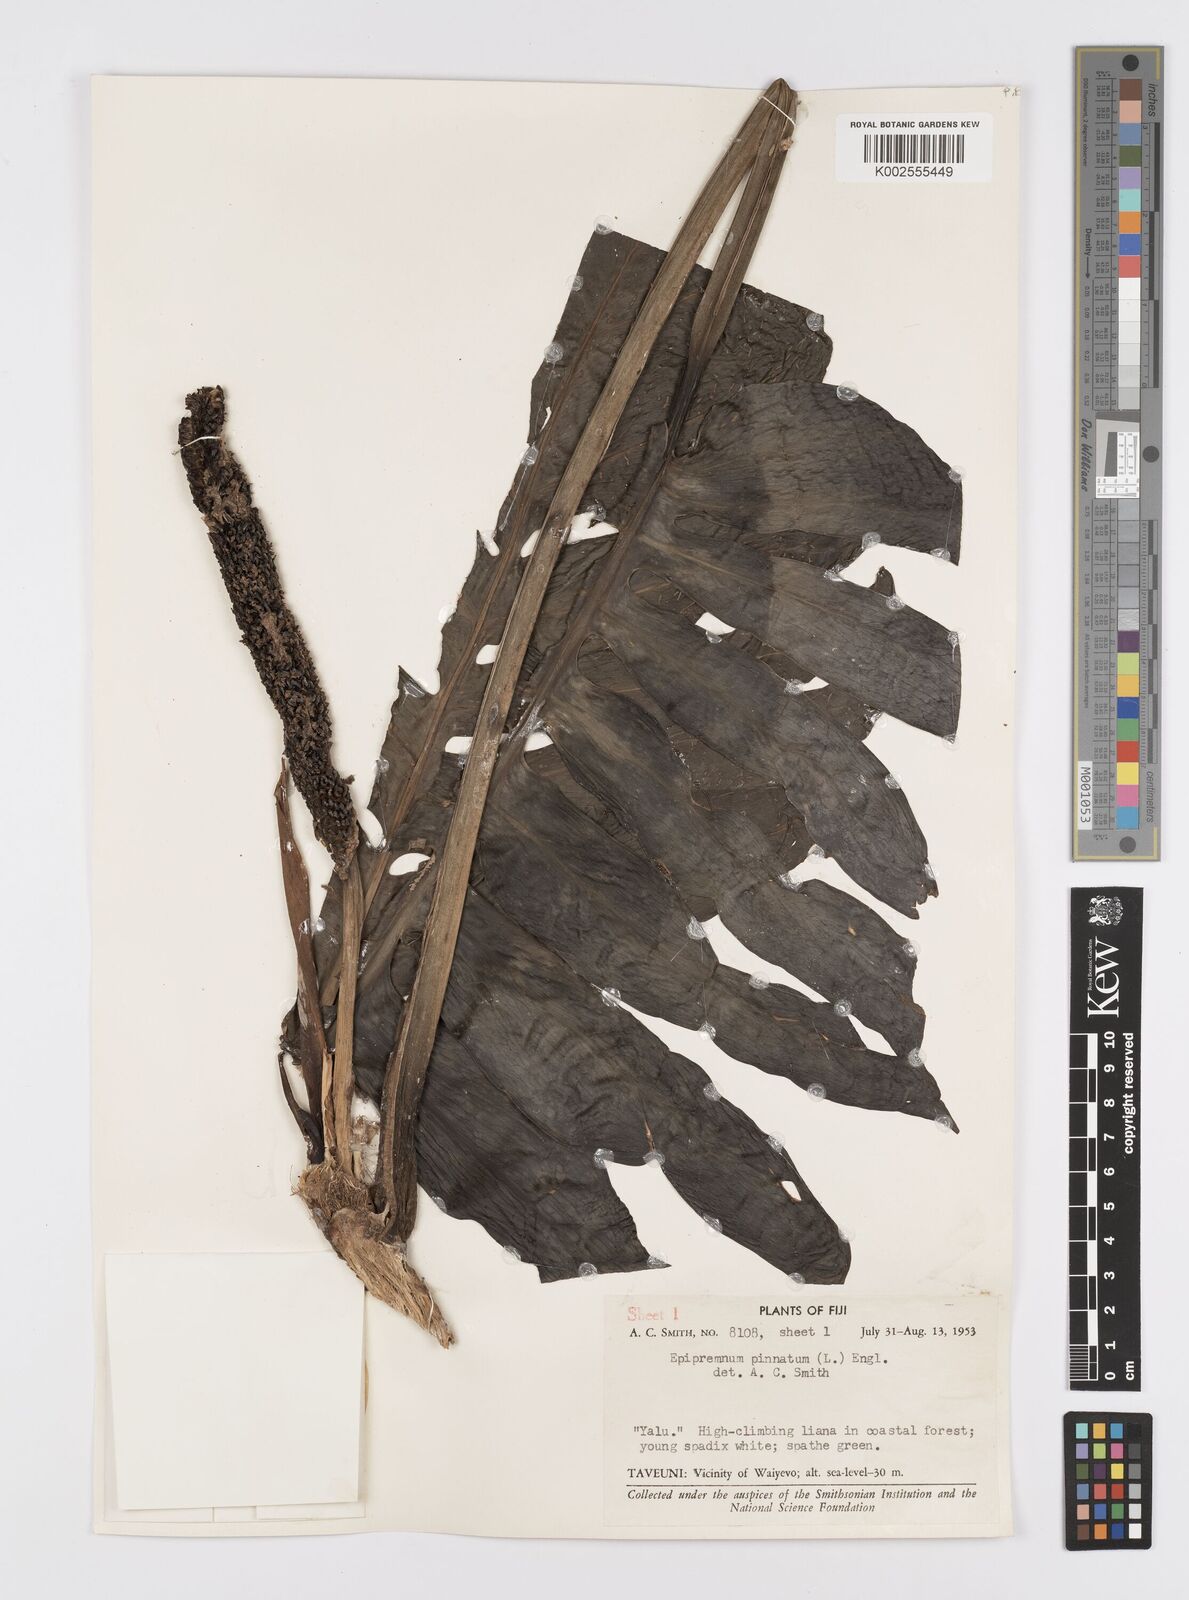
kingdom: Plantae
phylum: Tracheophyta
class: Liliopsida
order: Alismatales
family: Araceae
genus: Epipremnum
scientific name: Epipremnum pinnatum
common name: Centipede tongavine
